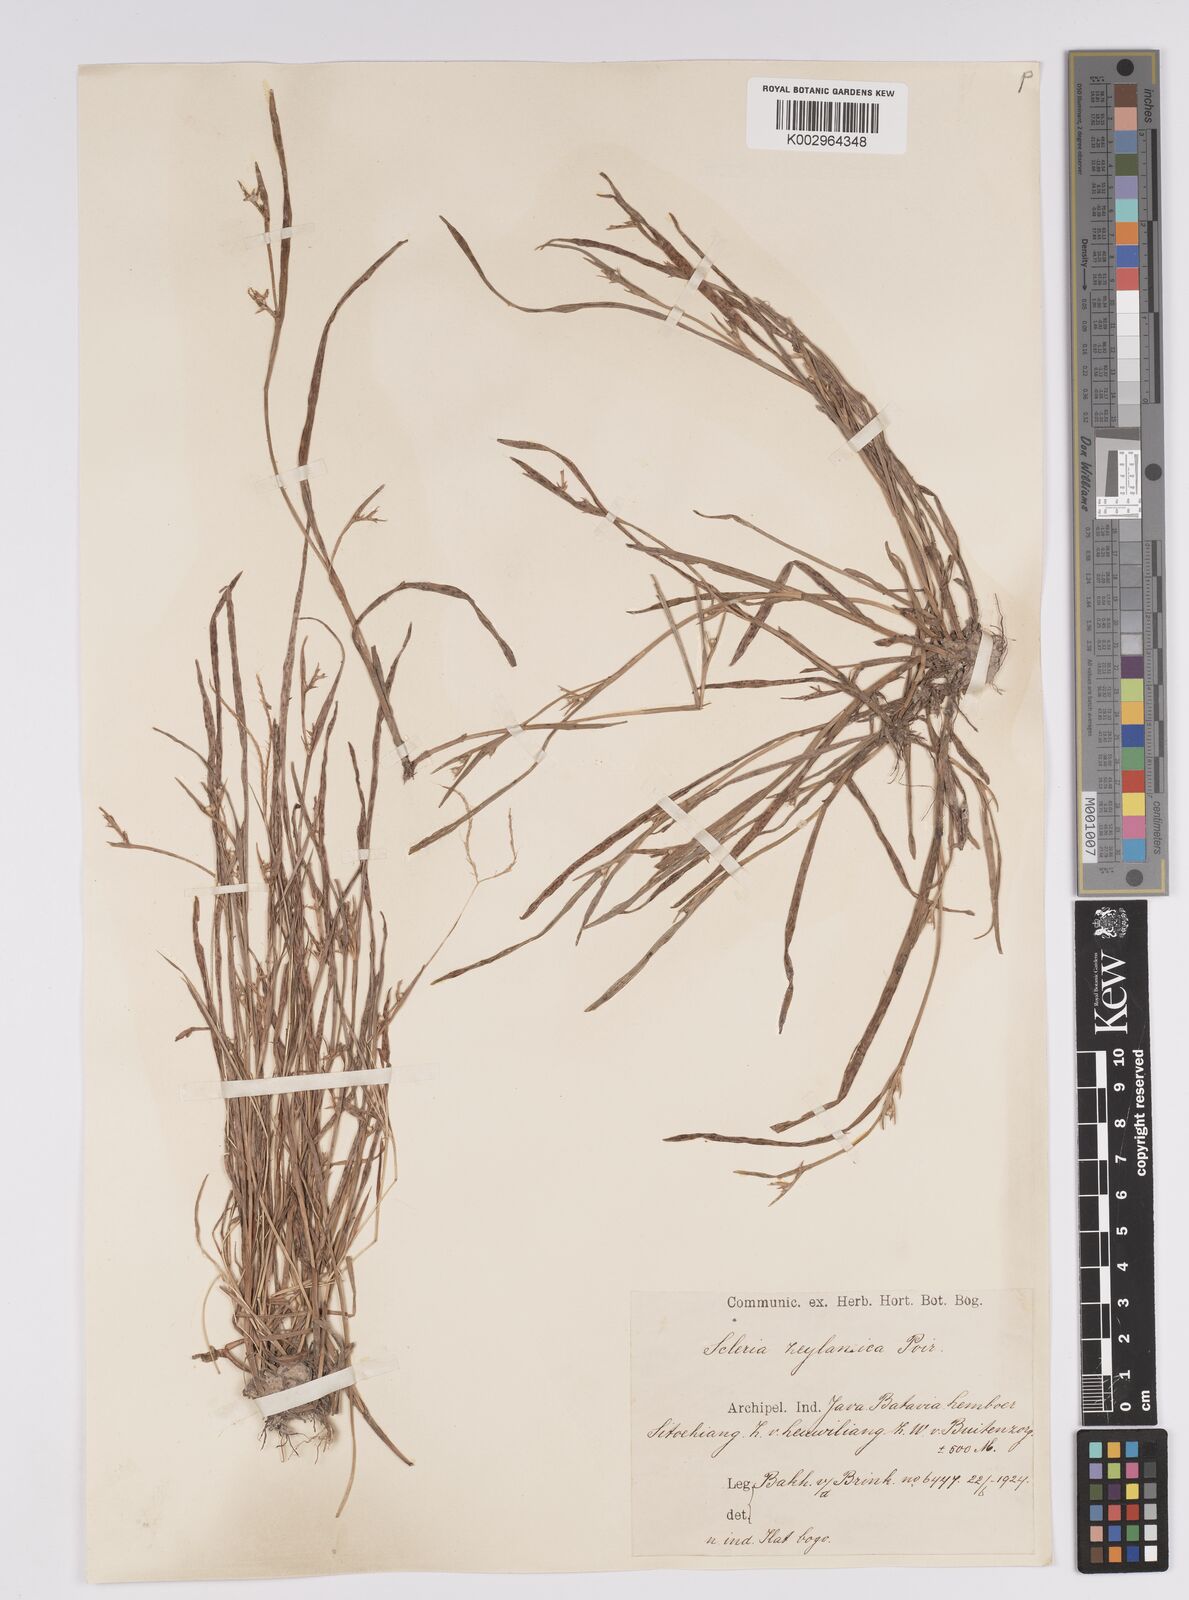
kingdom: Plantae
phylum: Tracheophyta
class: Liliopsida
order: Poales
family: Cyperaceae
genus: Scleria
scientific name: Scleria levis
